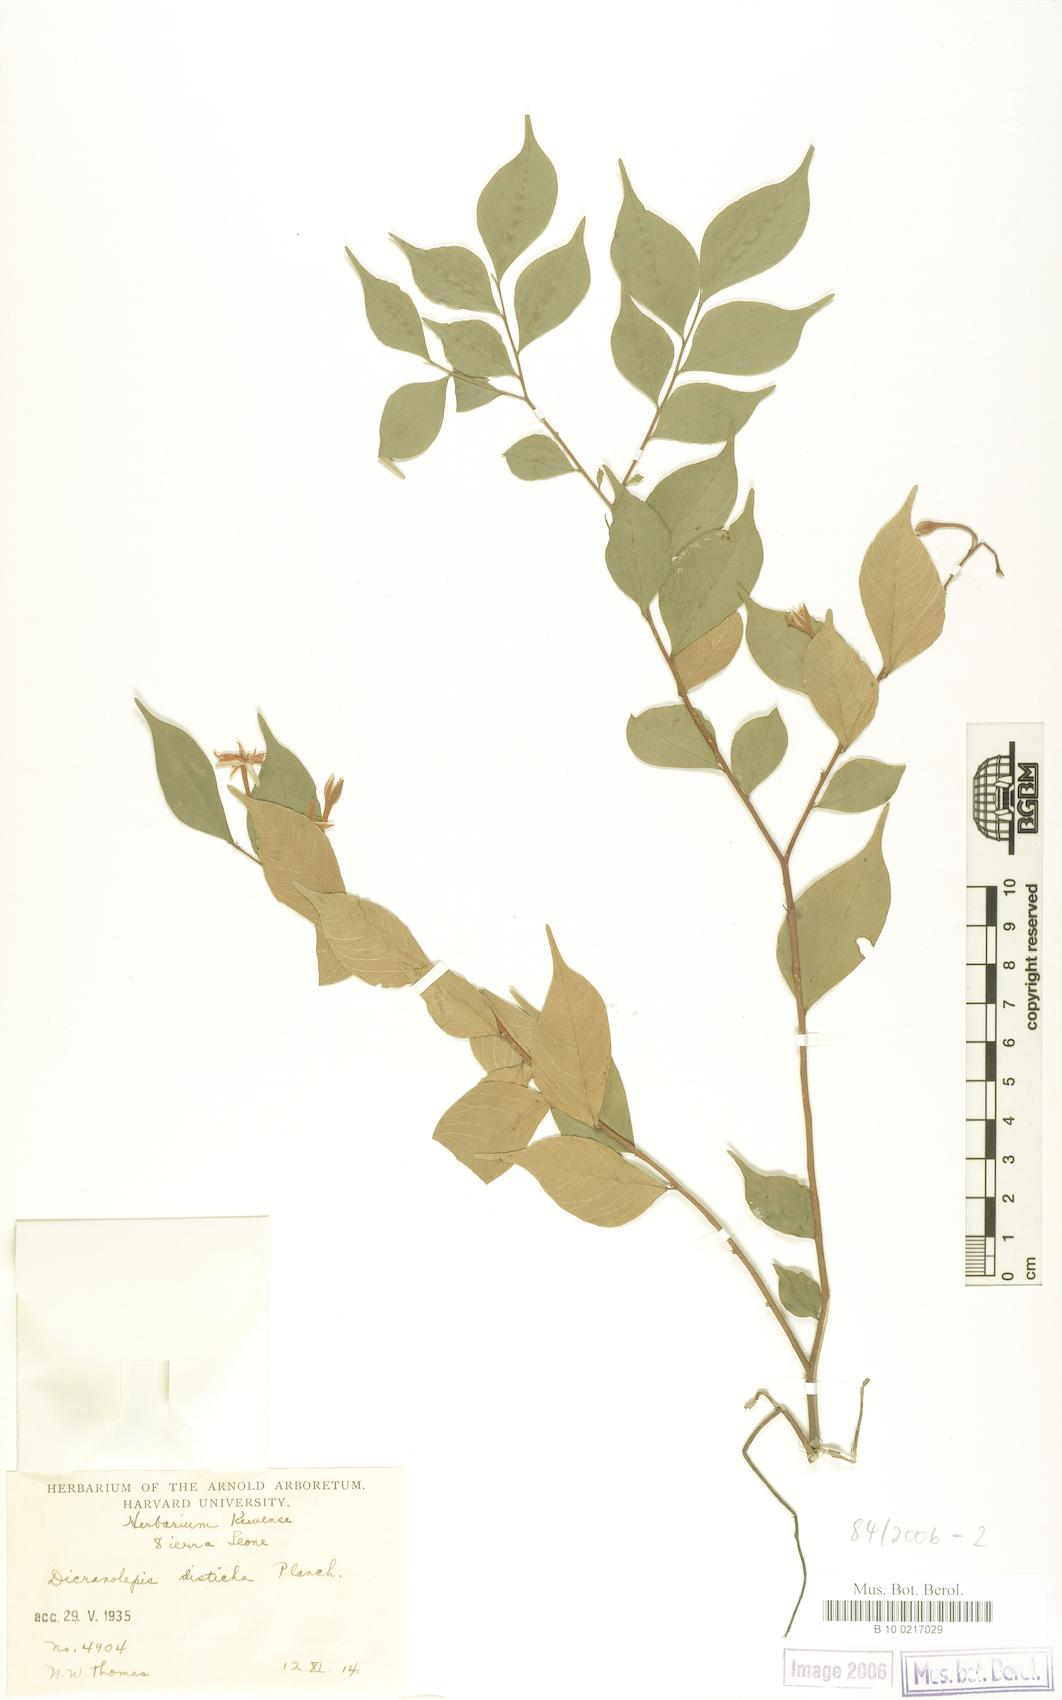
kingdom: Plantae
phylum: Tracheophyta
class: Magnoliopsida
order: Malvales
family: Thymelaeaceae
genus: Dicranolepis
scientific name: Dicranolepis disticha
